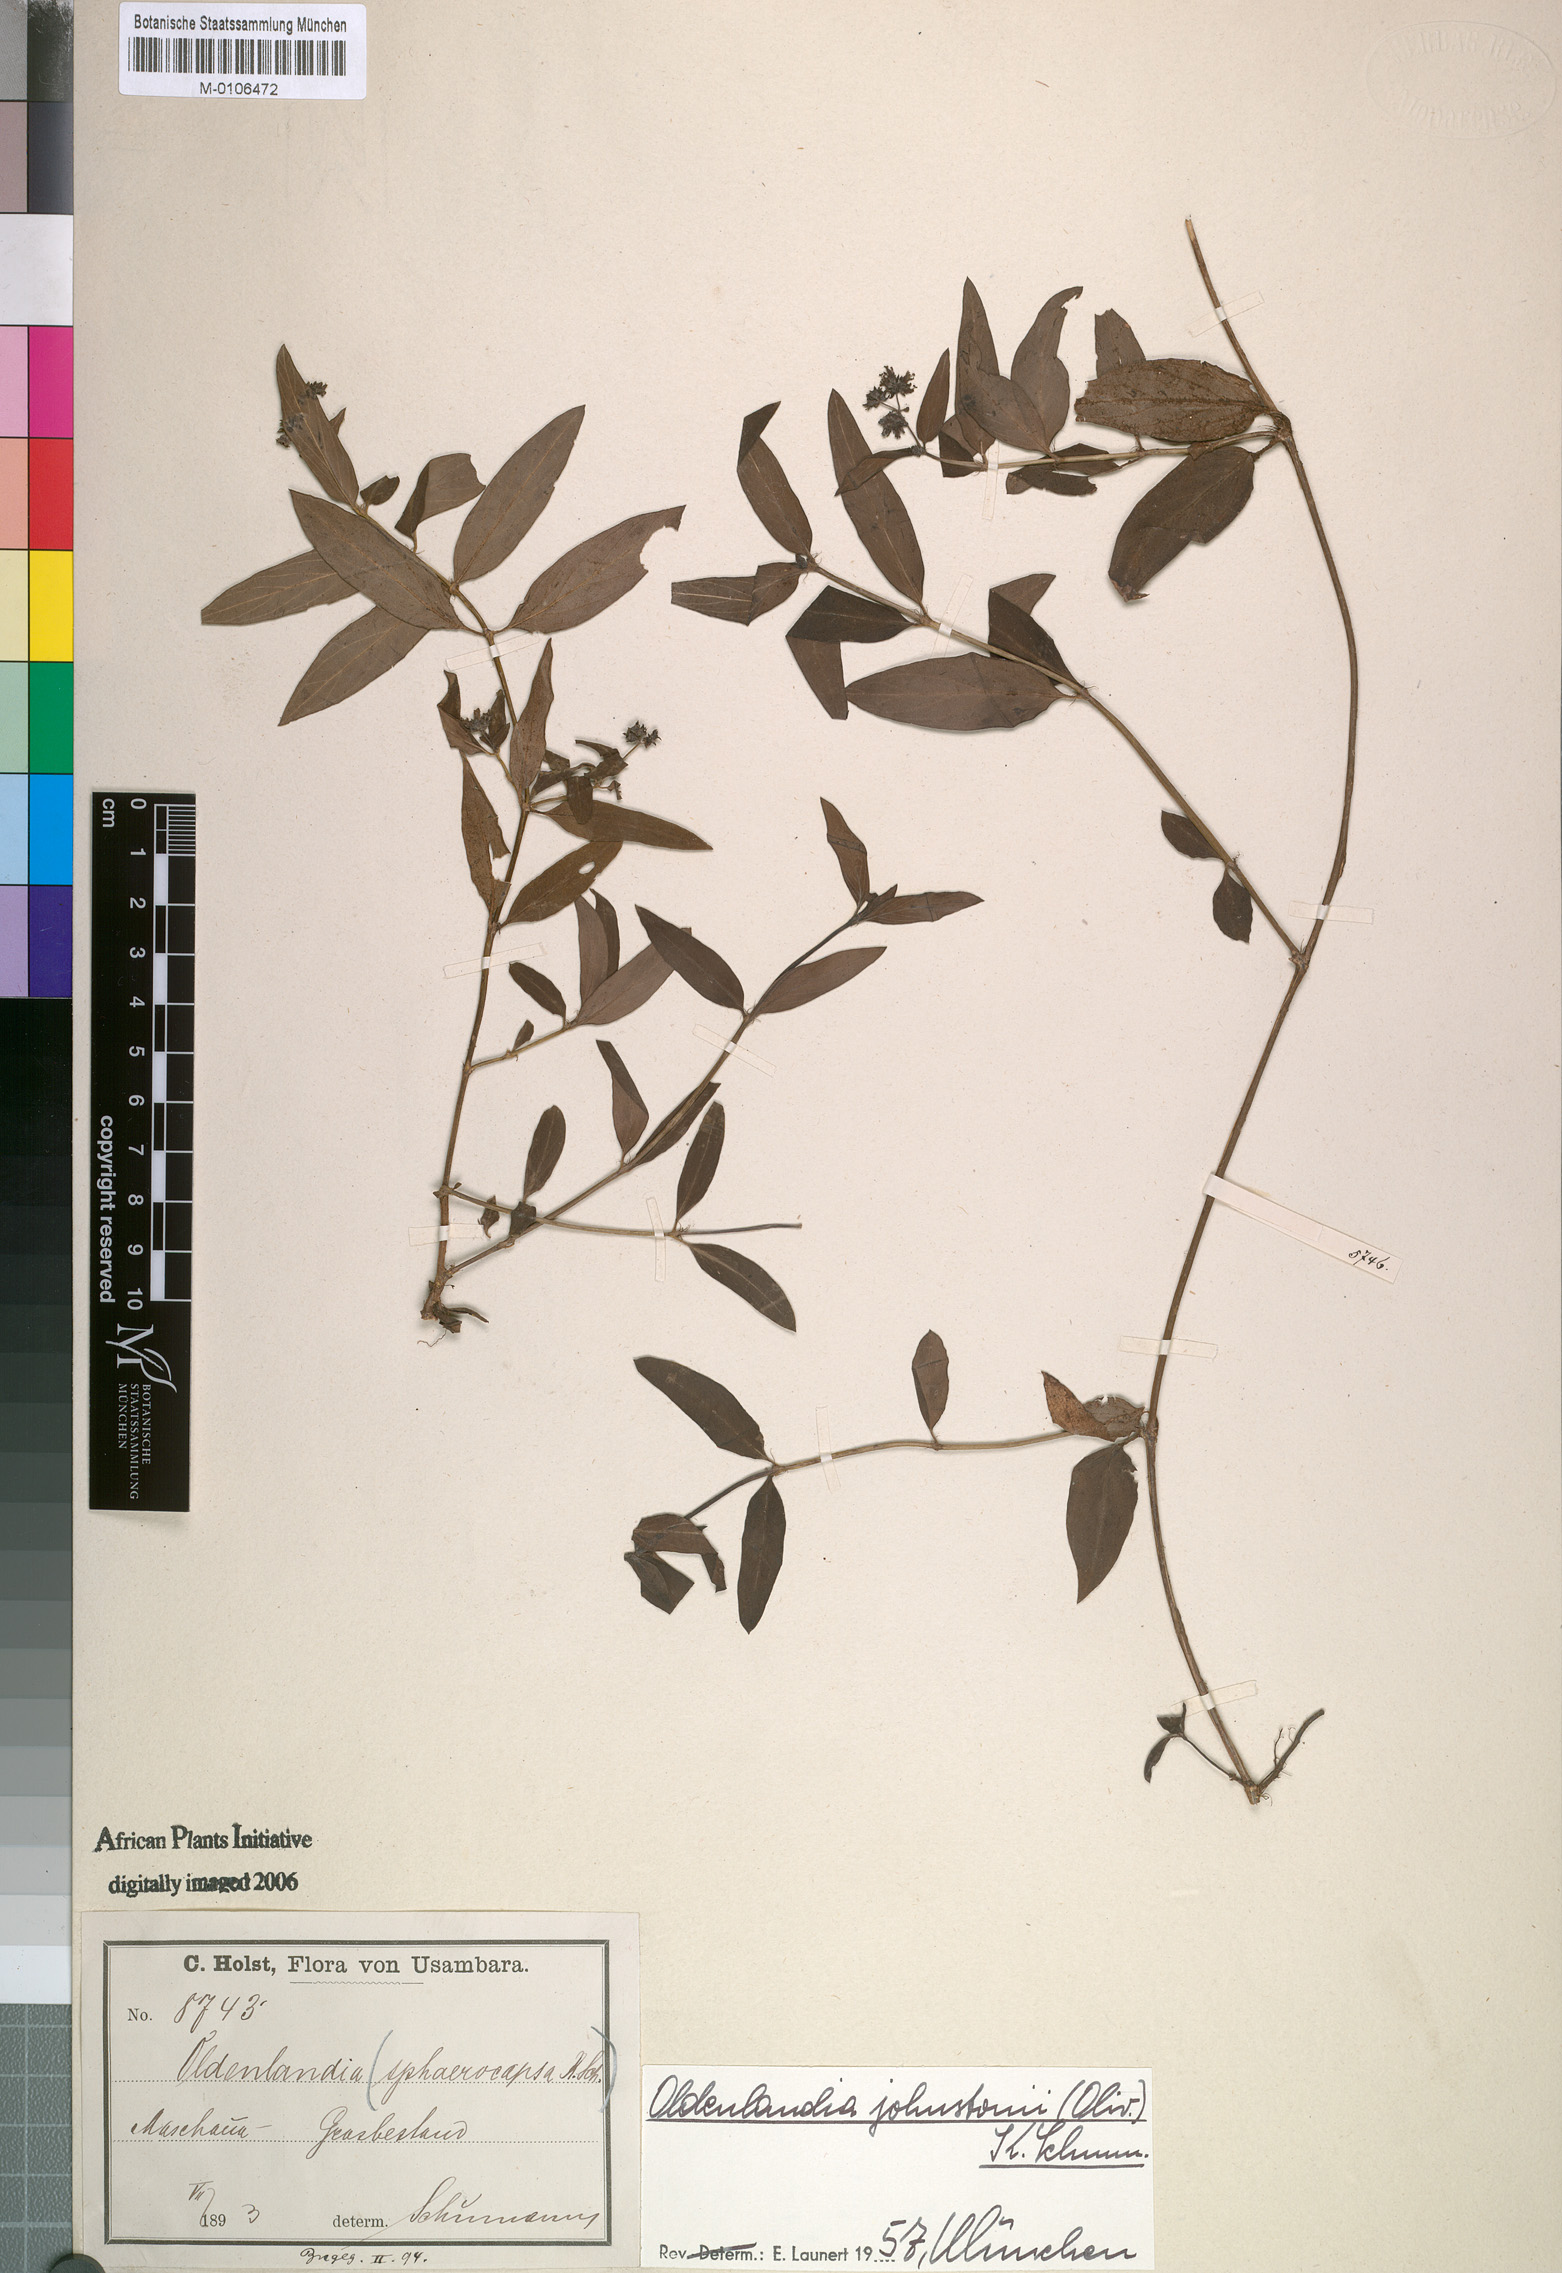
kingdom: Plantae
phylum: Tracheophyta
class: Magnoliopsida
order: Gentianales
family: Rubiaceae
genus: Oldenlandia
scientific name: Oldenlandia johnstonii
